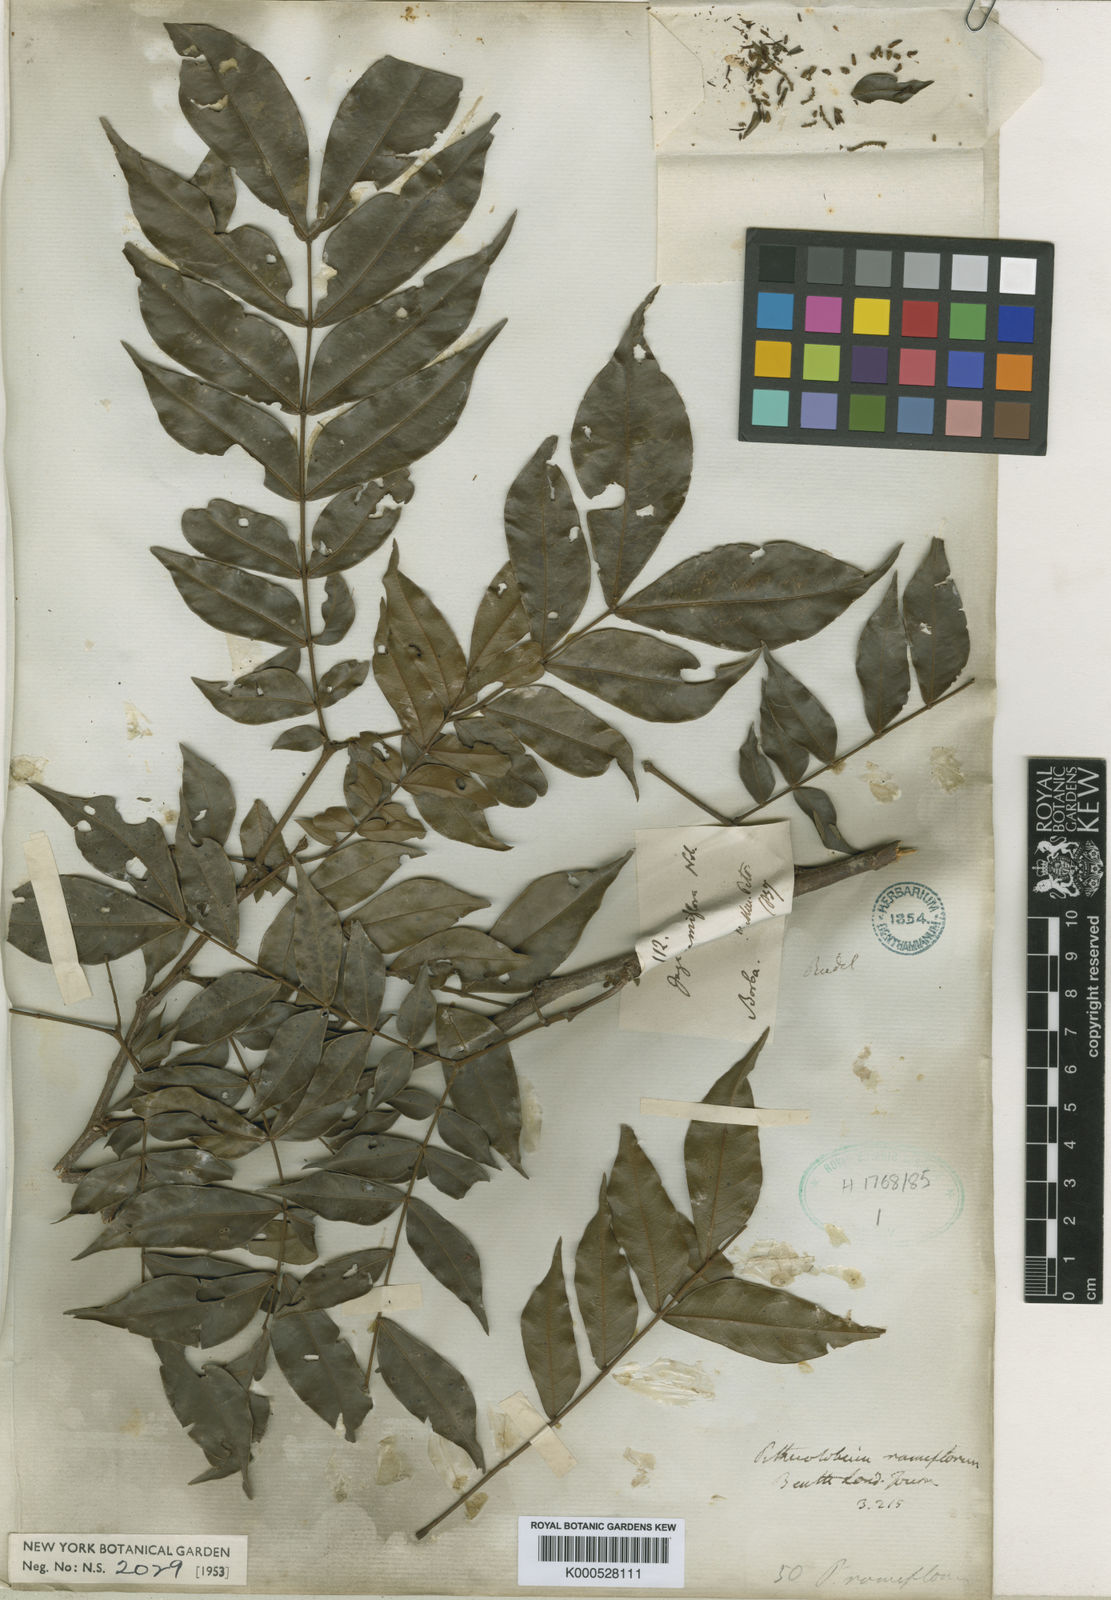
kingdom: Plantae
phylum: Tracheophyta
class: Magnoliopsida
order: Fabales
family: Fabaceae
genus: Zygia
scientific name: Zygia dinizii
